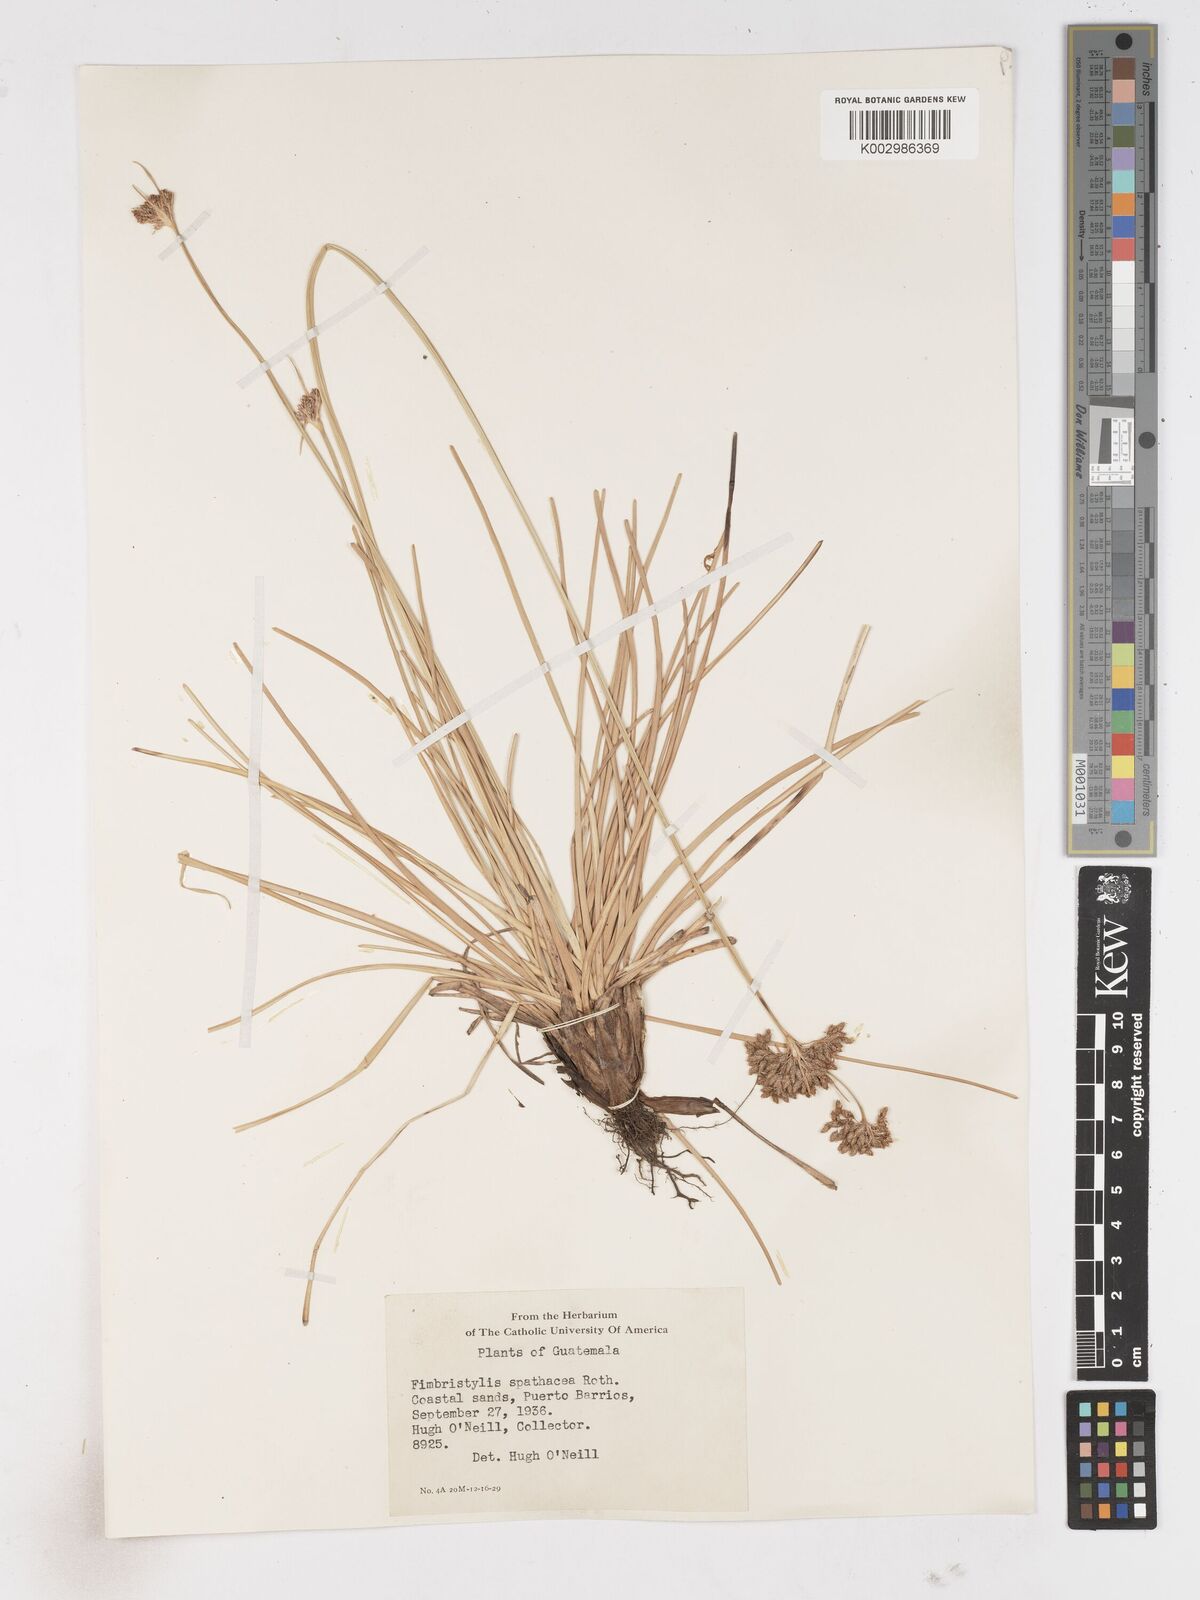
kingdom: Plantae
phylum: Tracheophyta
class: Liliopsida
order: Poales
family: Cyperaceae
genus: Fimbristylis
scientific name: Fimbristylis cymosa
